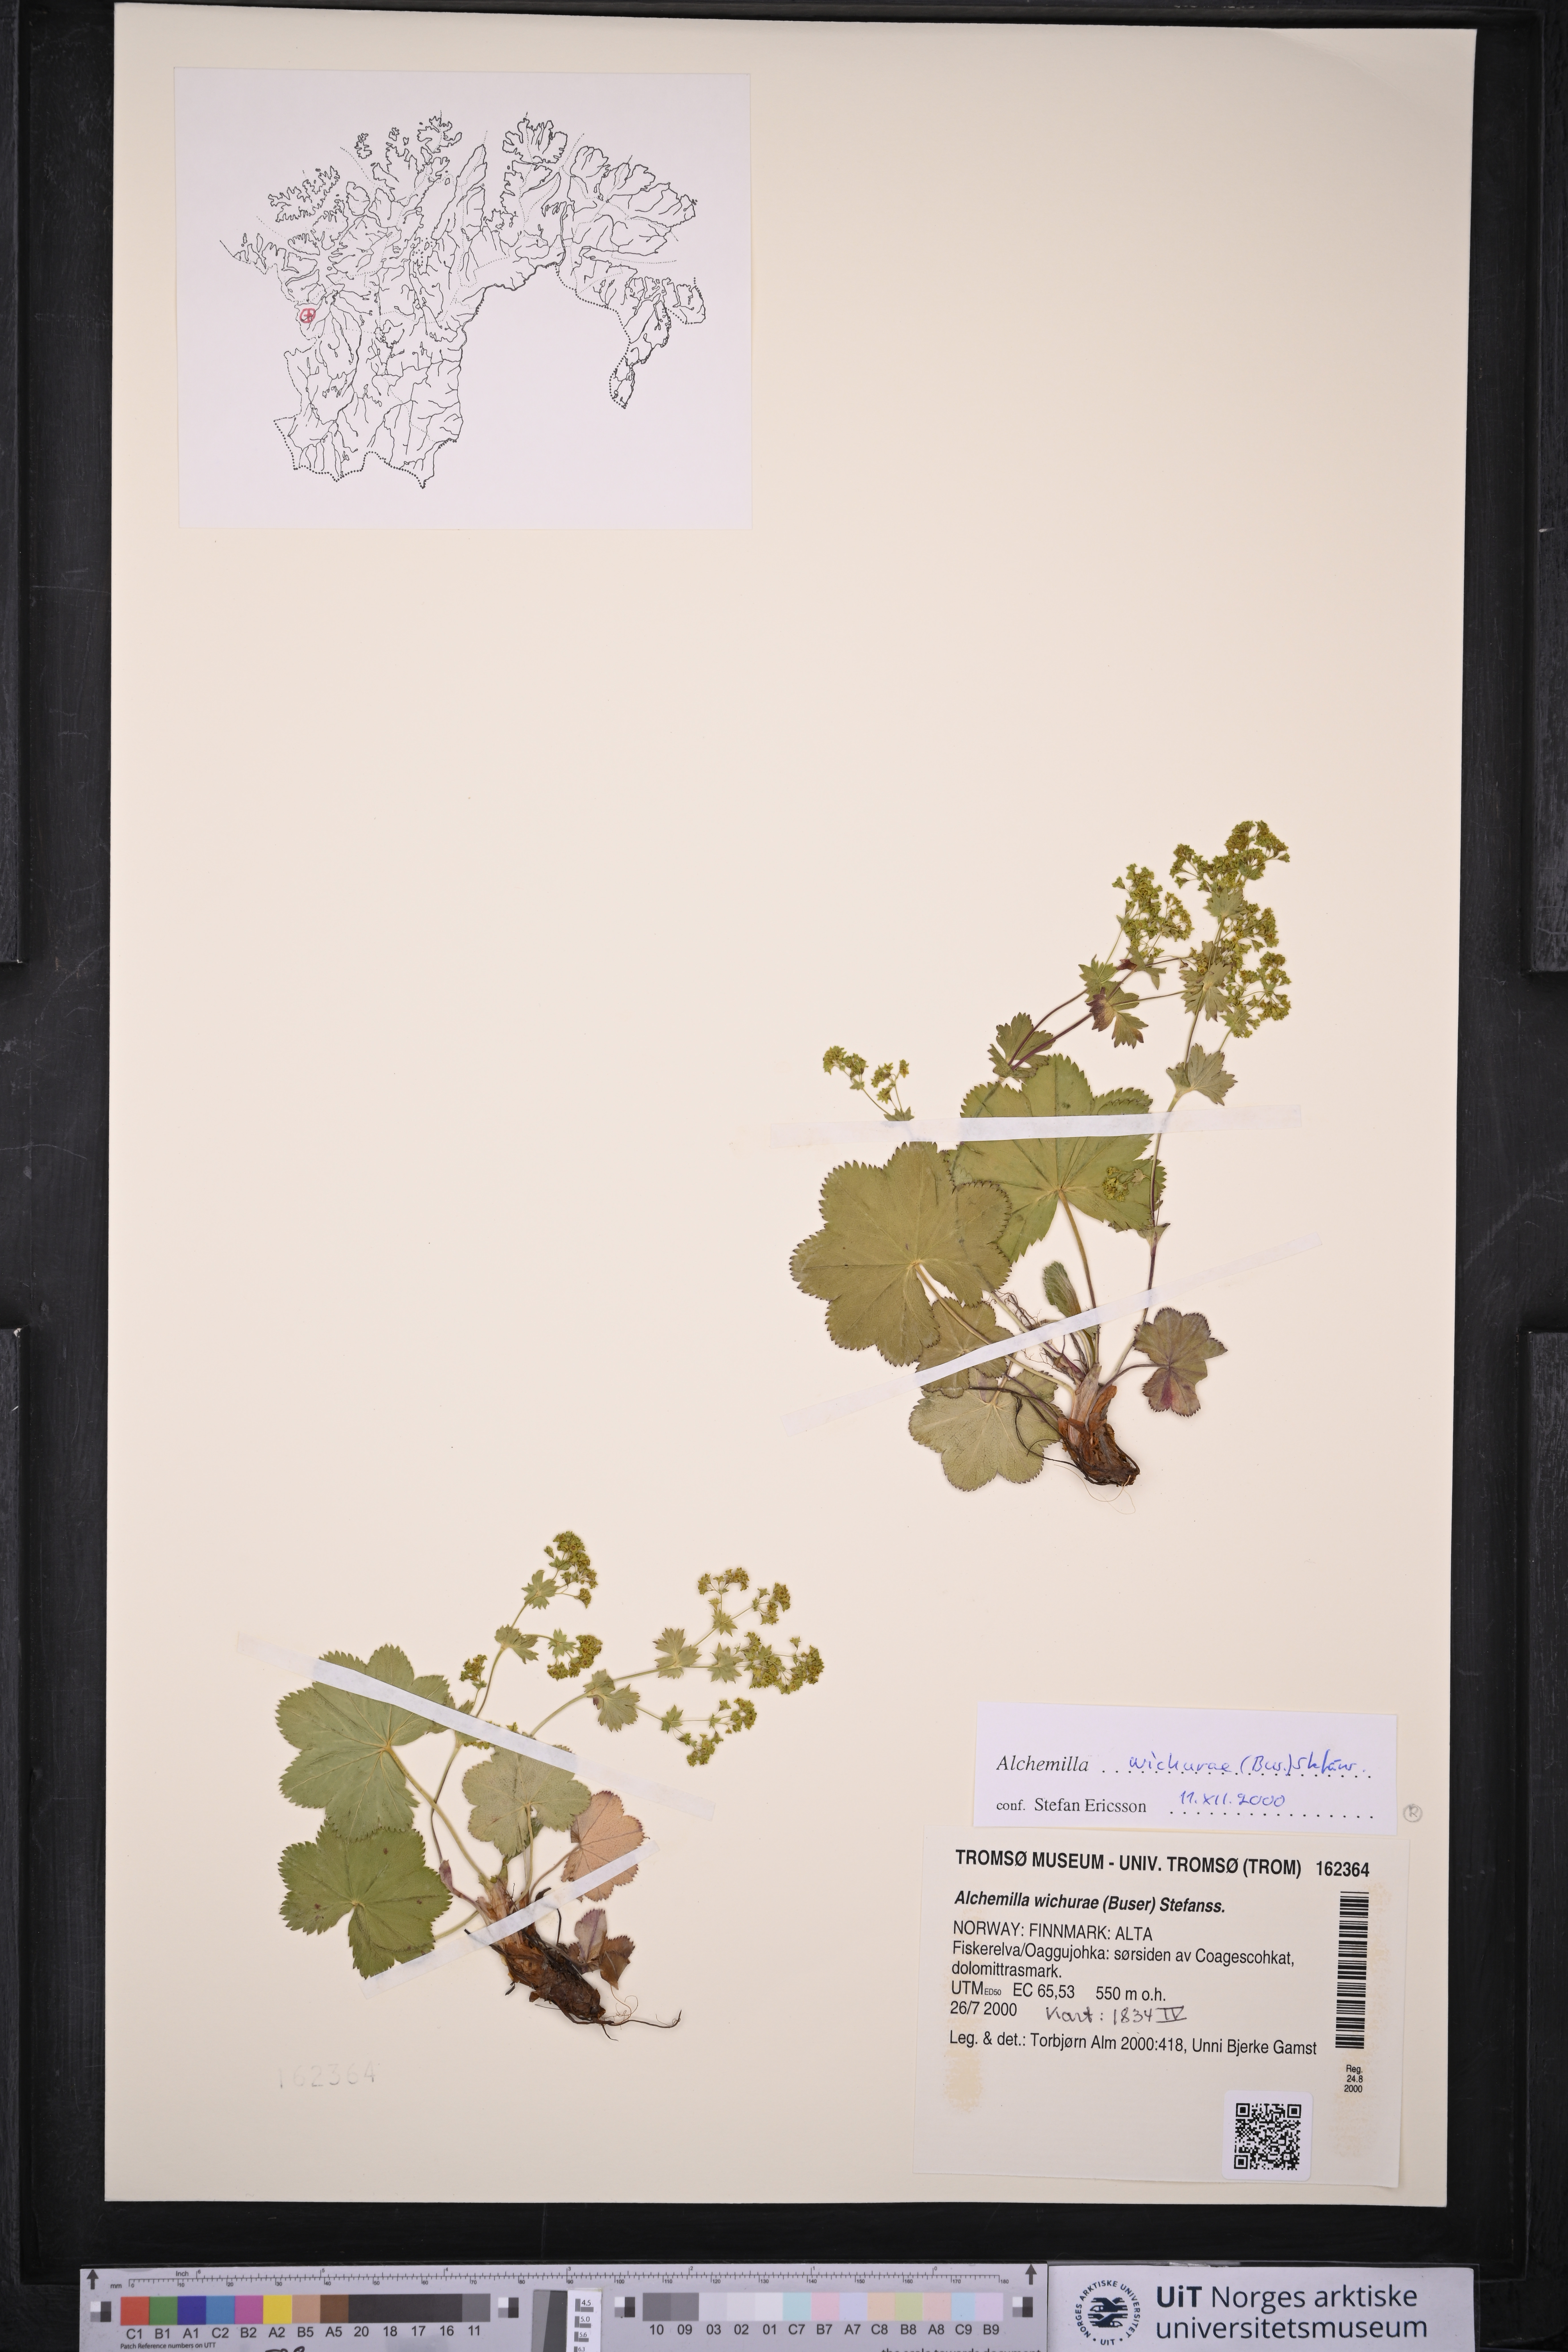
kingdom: Plantae
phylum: Tracheophyta
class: Magnoliopsida
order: Rosales
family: Rosaceae
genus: Alchemilla
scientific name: Alchemilla wichurae
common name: Rock lady's mantle
